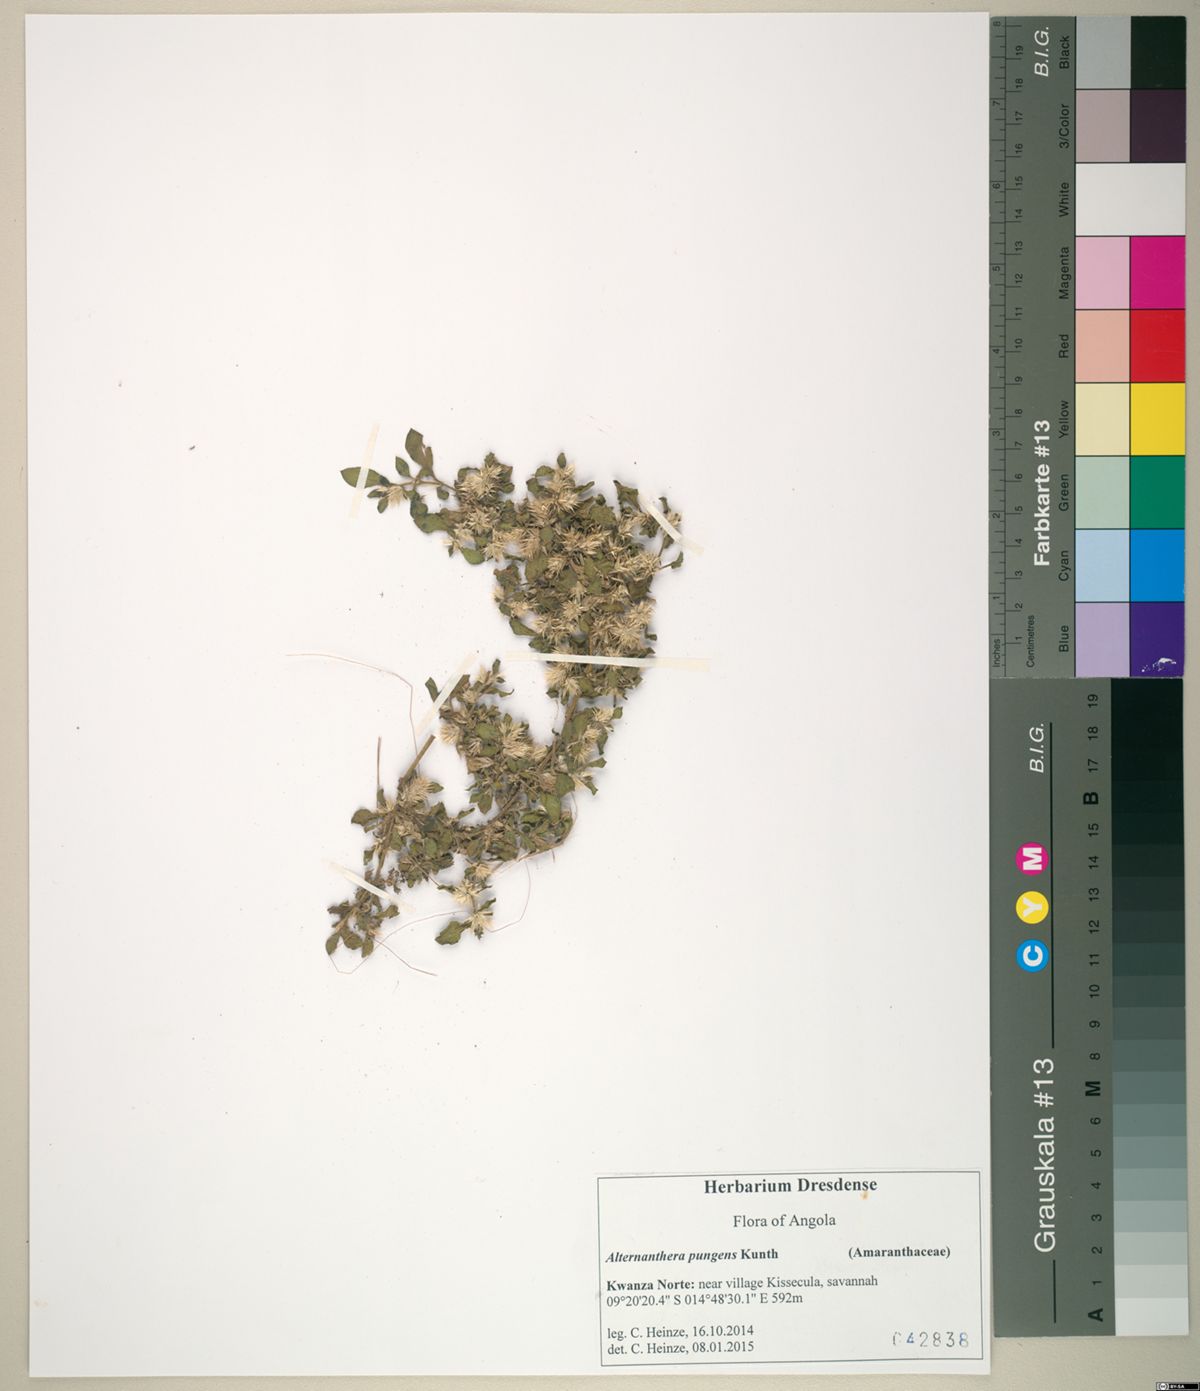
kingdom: Plantae
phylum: Tracheophyta
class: Magnoliopsida
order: Caryophyllales
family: Amaranthaceae
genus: Alternanthera
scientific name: Alternanthera pungens
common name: Khakiweed
